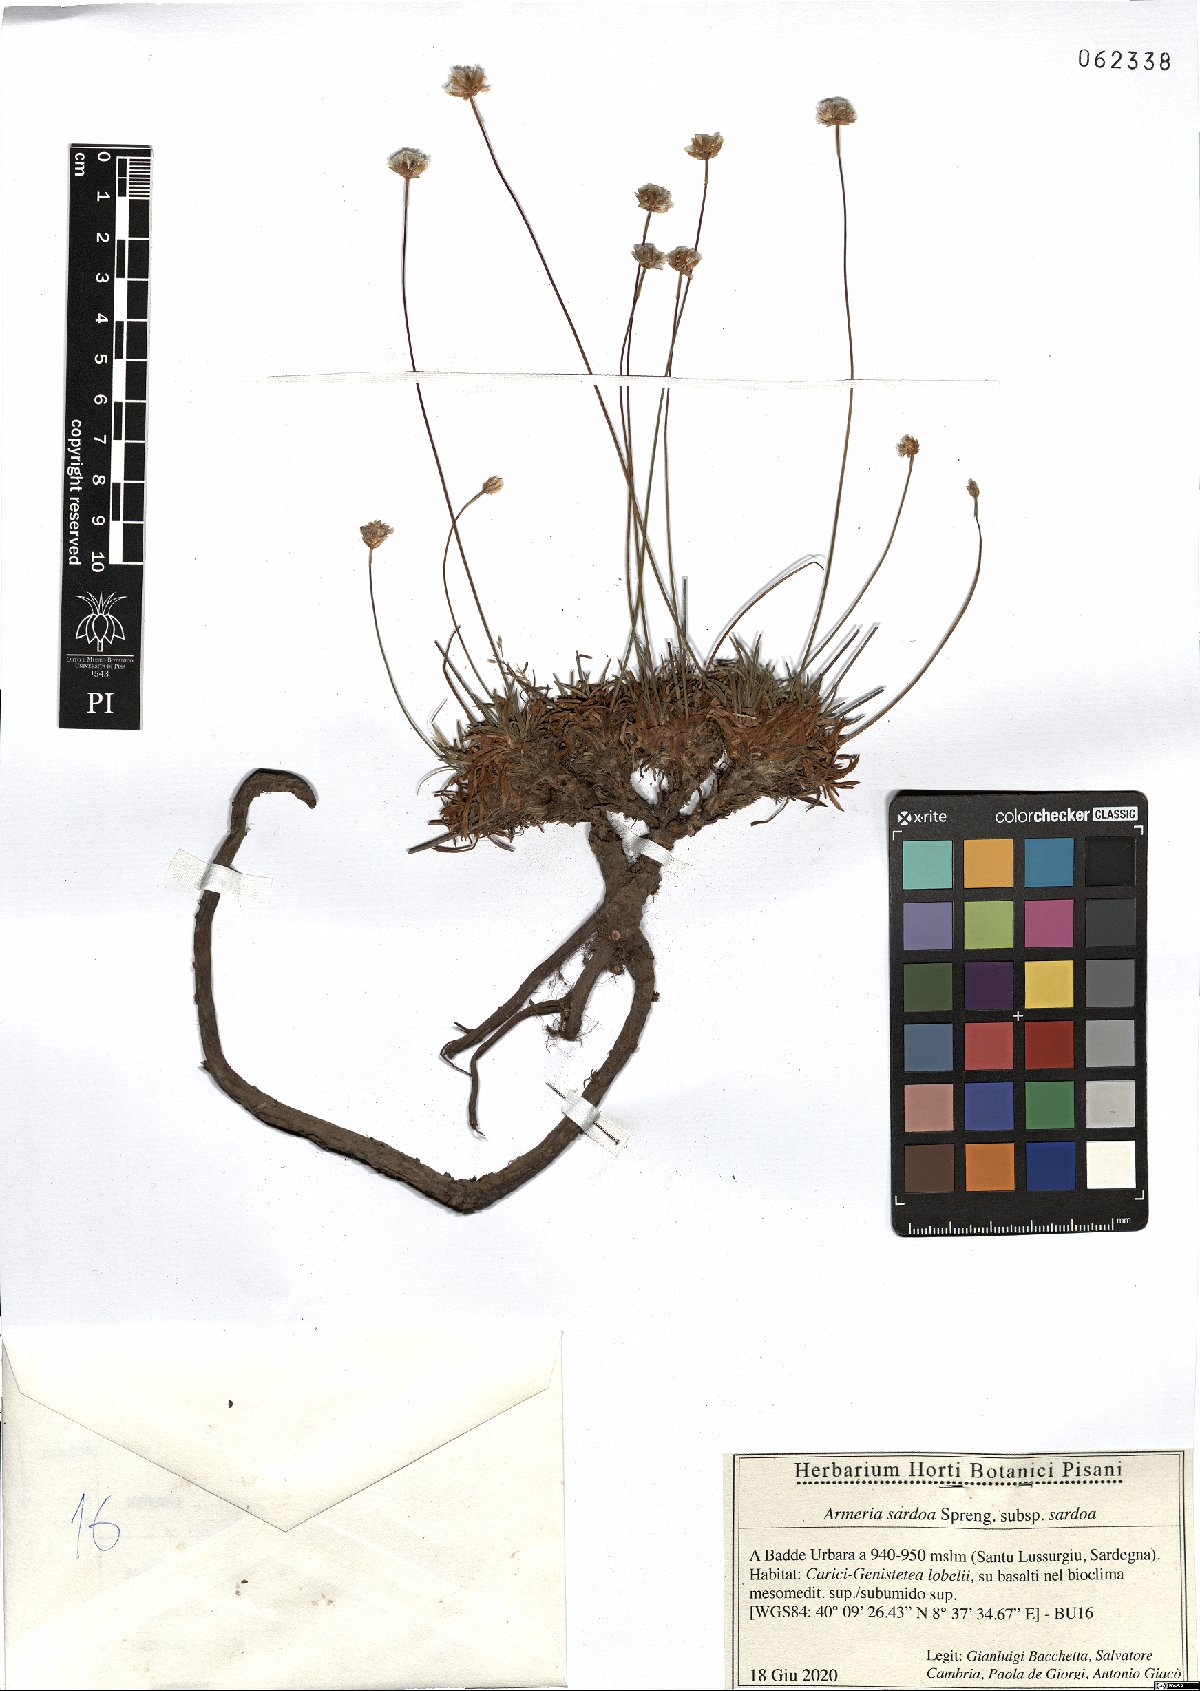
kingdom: Plantae
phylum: Tracheophyta
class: Magnoliopsida
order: Caryophyllales
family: Plumbaginaceae
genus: Armeria
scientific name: Armeria sardoa
